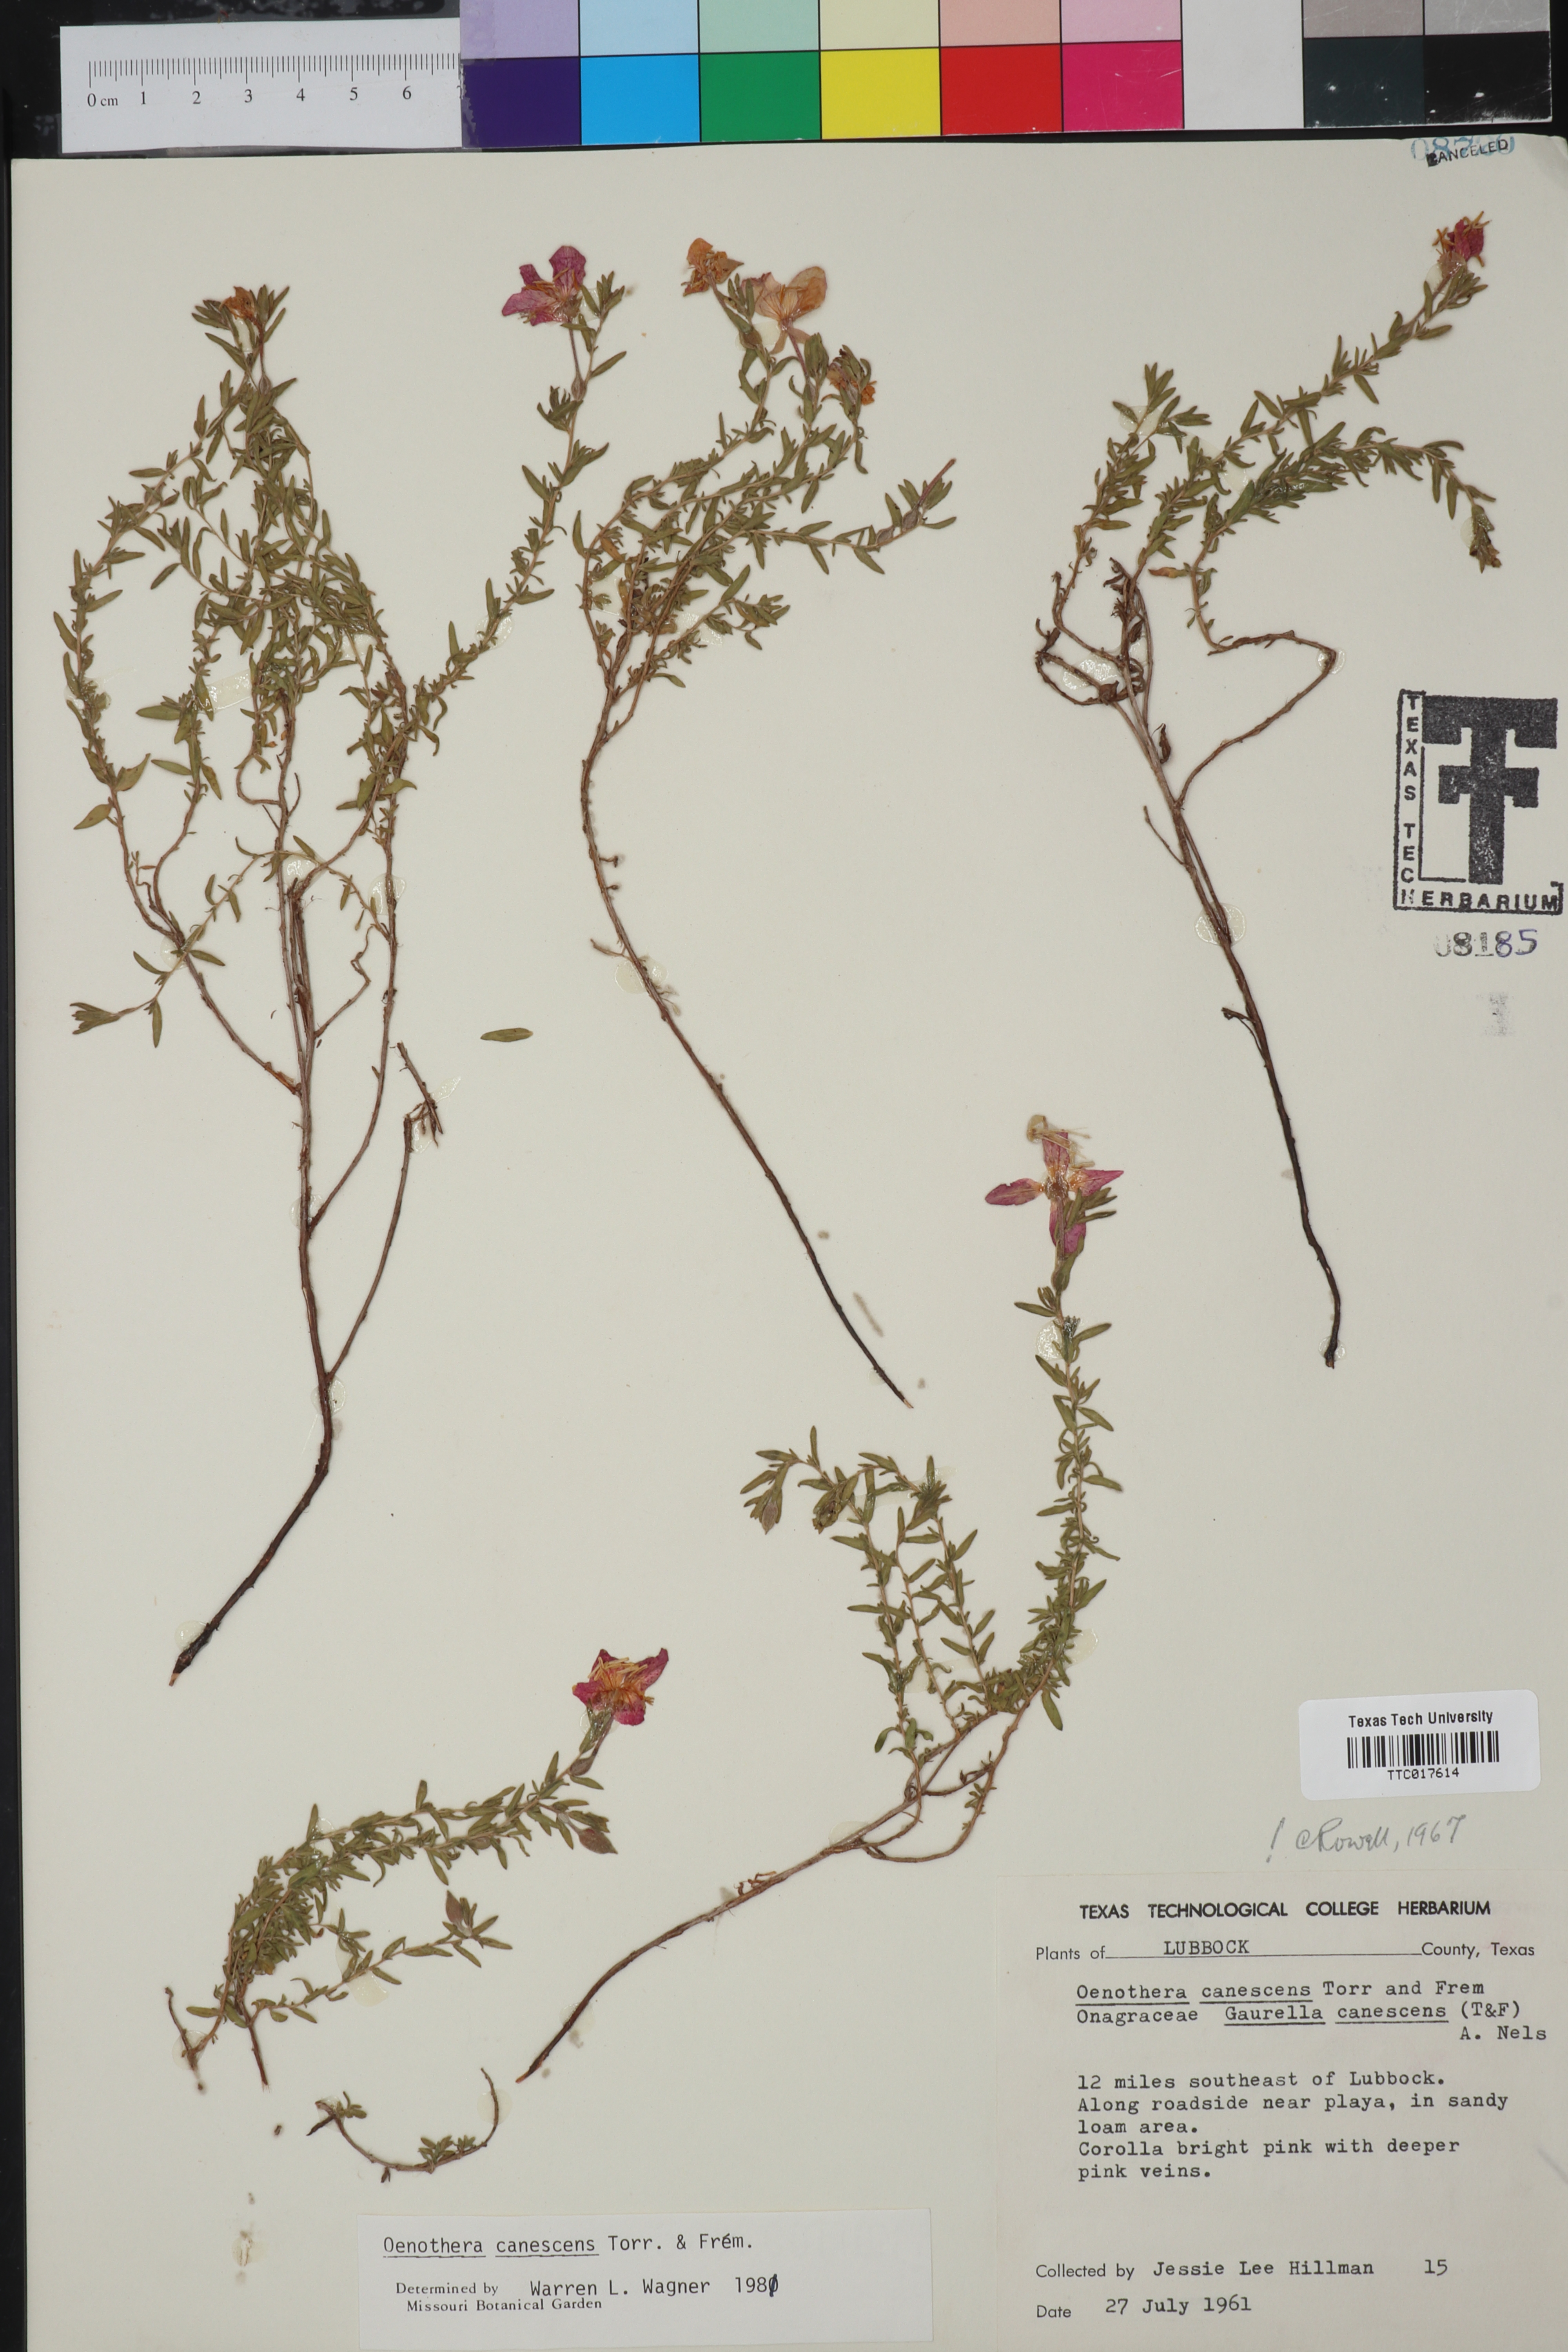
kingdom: Plantae
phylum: Tracheophyta
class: Magnoliopsida
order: Myrtales
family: Onagraceae
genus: Oenothera
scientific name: Oenothera canescens
